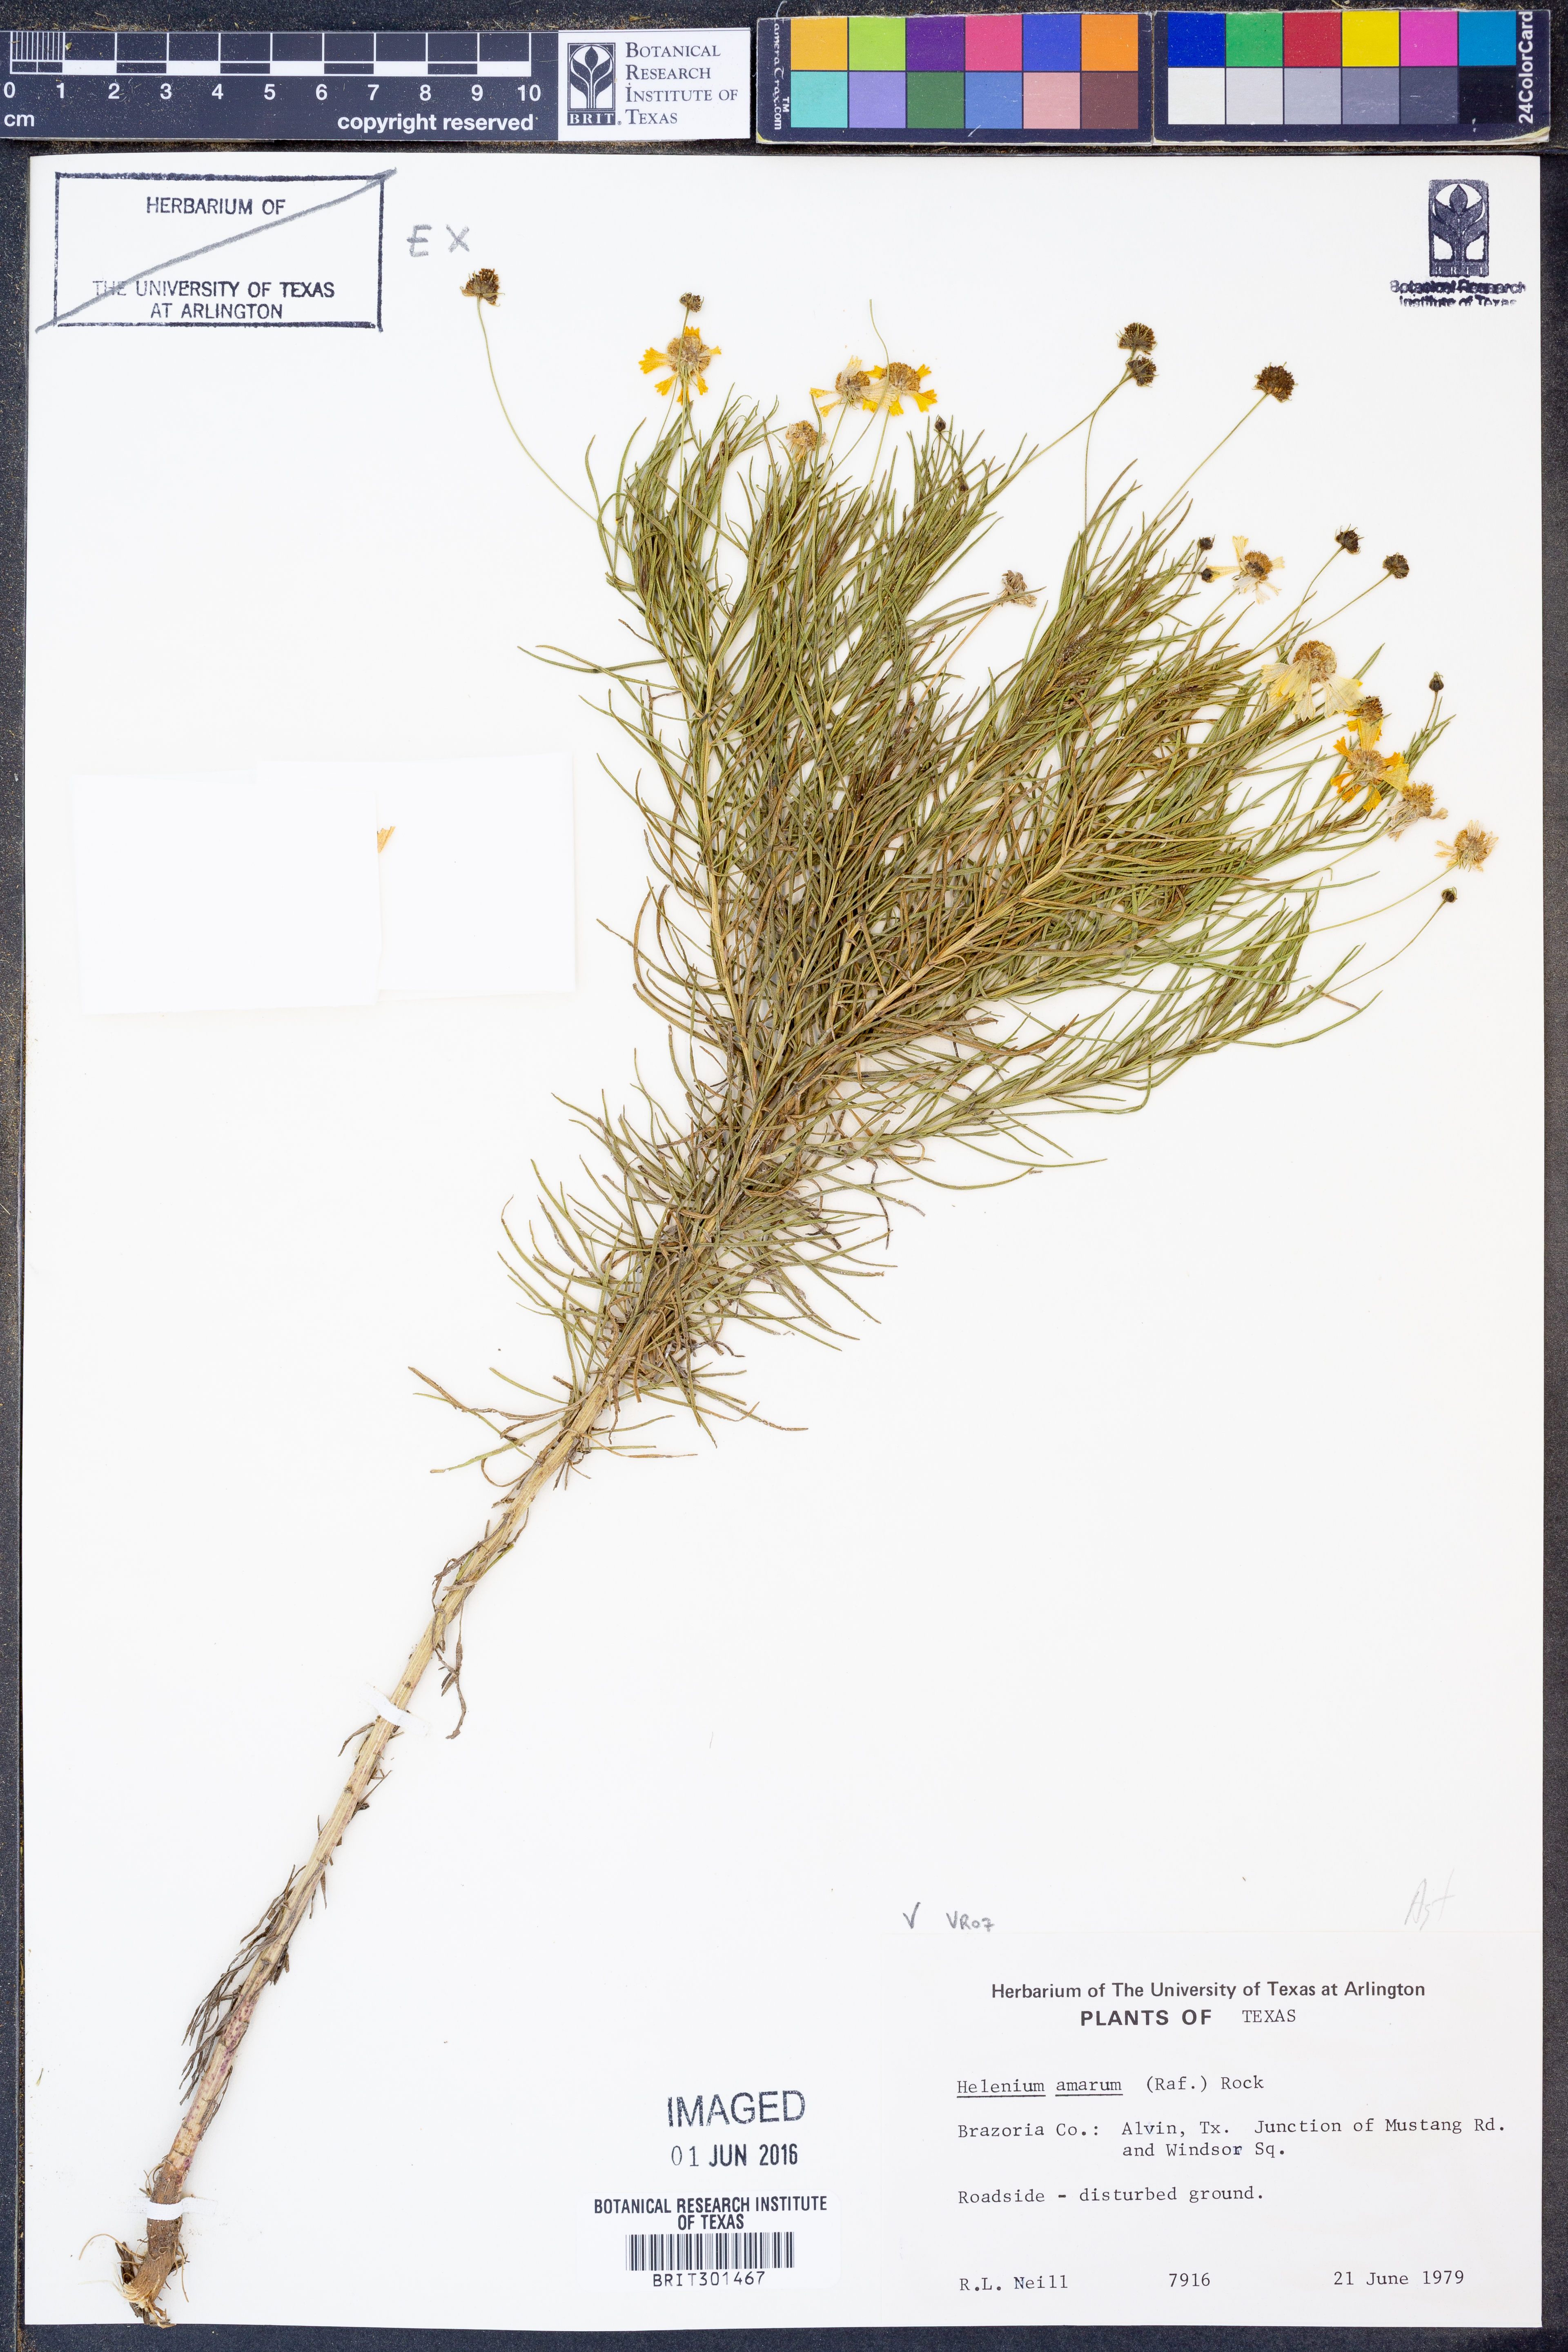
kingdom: Plantae
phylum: Tracheophyta
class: Magnoliopsida
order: Asterales
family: Asteraceae
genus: Helenium
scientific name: Helenium amarum
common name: Bitter sneezeweed
